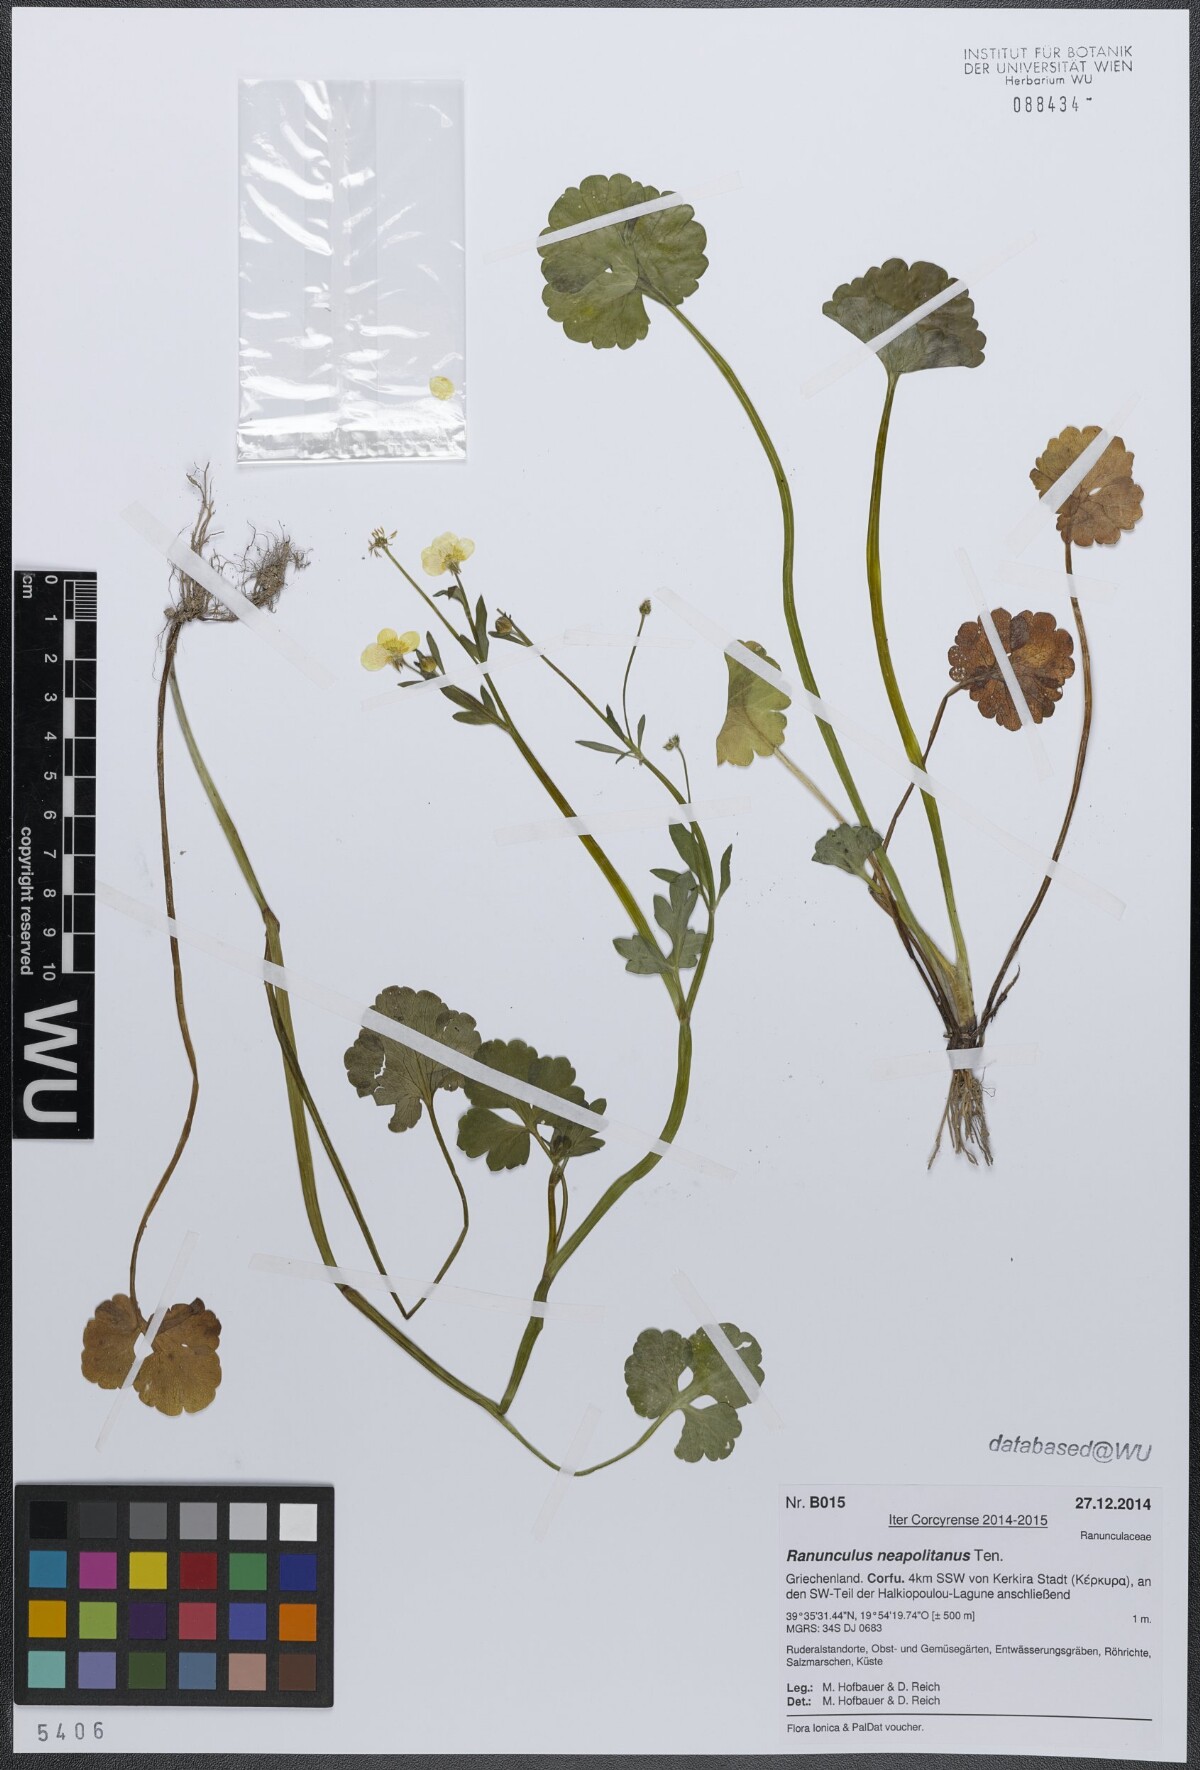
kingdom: Plantae
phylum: Tracheophyta
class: Magnoliopsida
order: Ranunculales
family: Ranunculaceae
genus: Ranunculus
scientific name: Ranunculus neapolitanus
